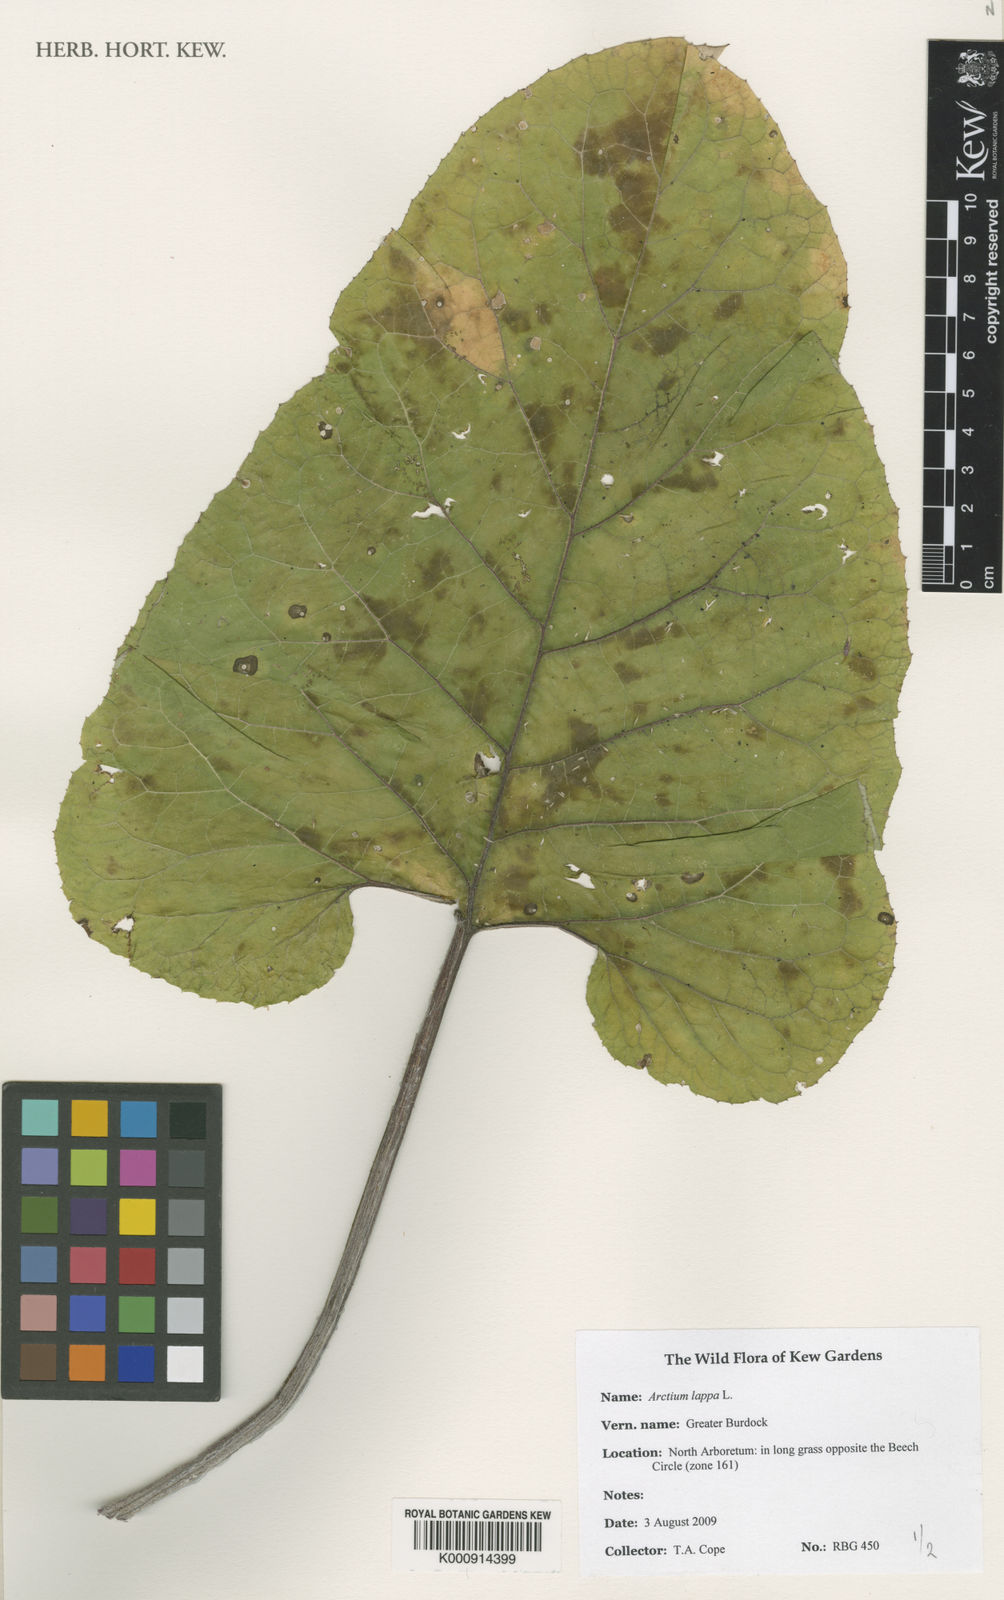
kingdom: Plantae
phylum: Tracheophyta
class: Magnoliopsida
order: Asterales
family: Asteraceae
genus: Arctium
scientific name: Arctium lappa
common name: Greater burdock
